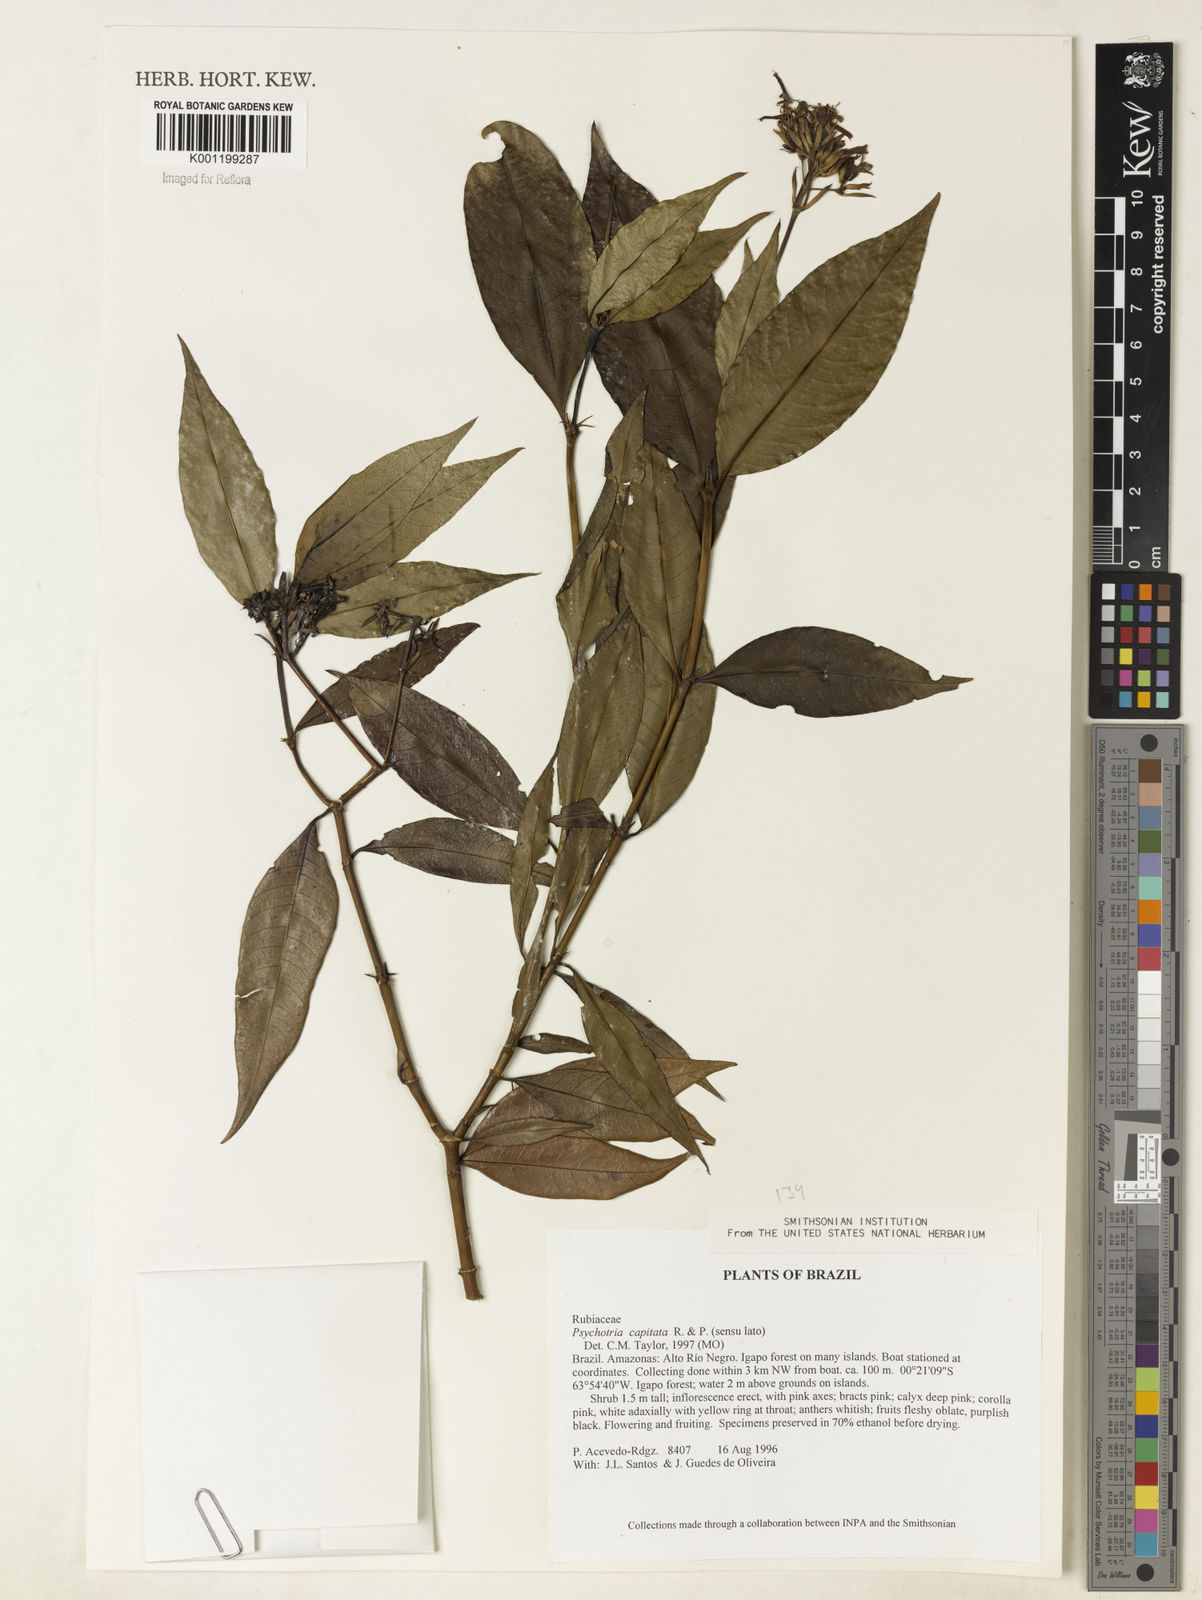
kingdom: Plantae
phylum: Tracheophyta
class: Magnoliopsida
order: Gentianales
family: Rubiaceae
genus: Palicourea
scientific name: Palicourea violacea
